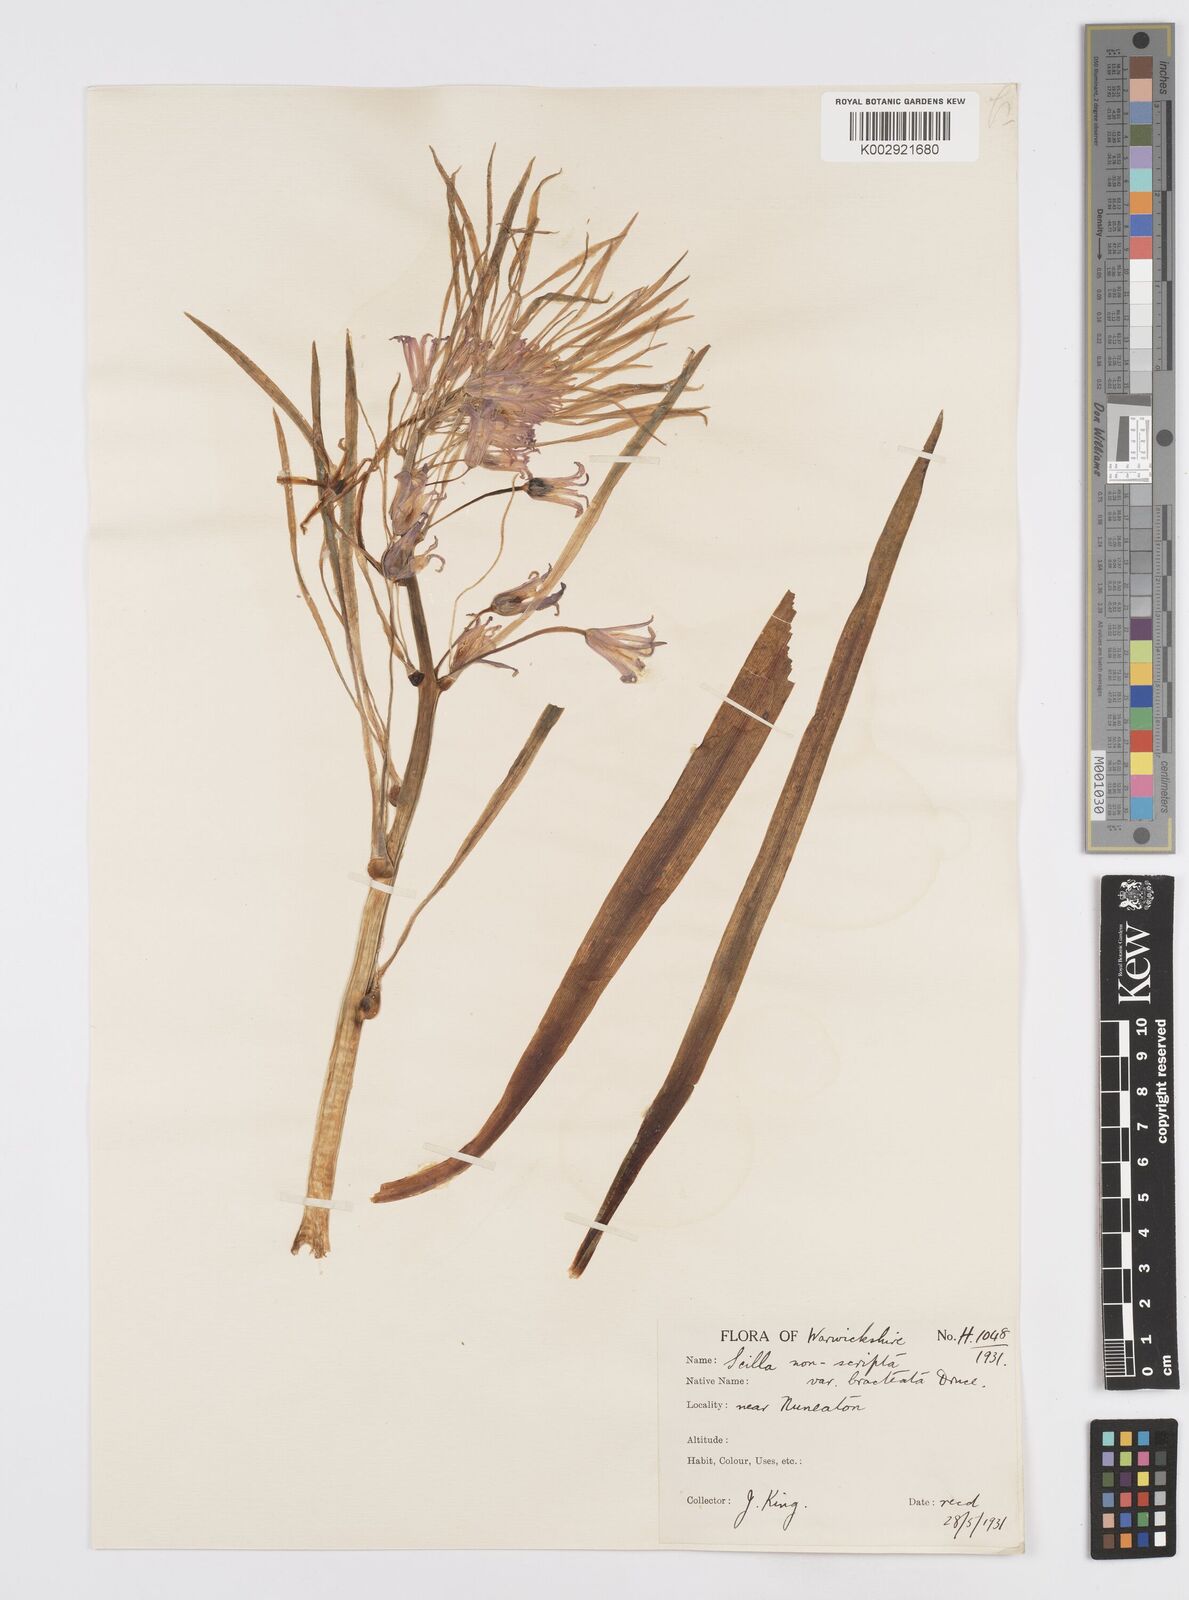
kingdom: Plantae
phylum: Tracheophyta
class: Liliopsida
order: Asparagales
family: Asparagaceae
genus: Hyacinthoides
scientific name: Hyacinthoides
